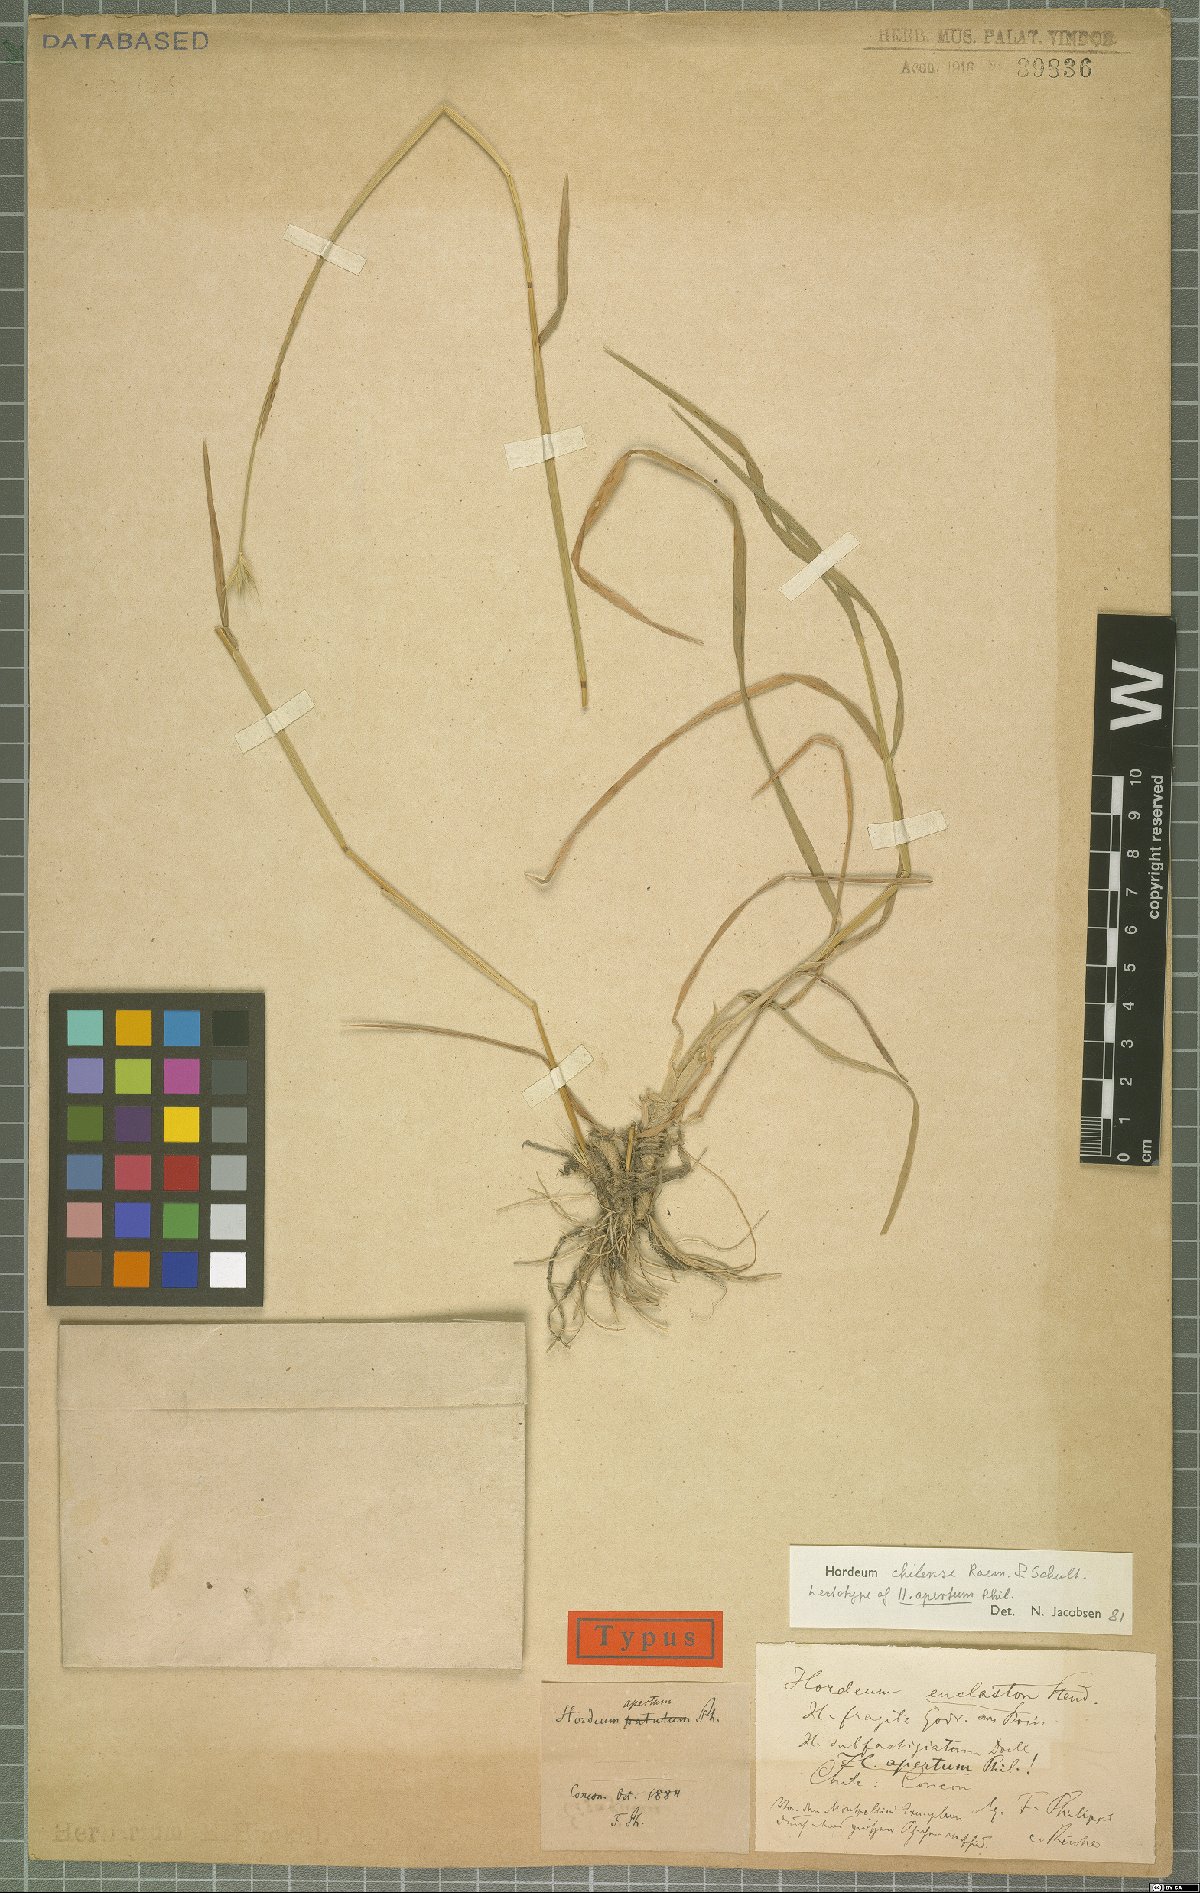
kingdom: Plantae
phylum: Tracheophyta
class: Liliopsida
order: Poales
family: Poaceae
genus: Hordeum
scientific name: Hordeum chilense
